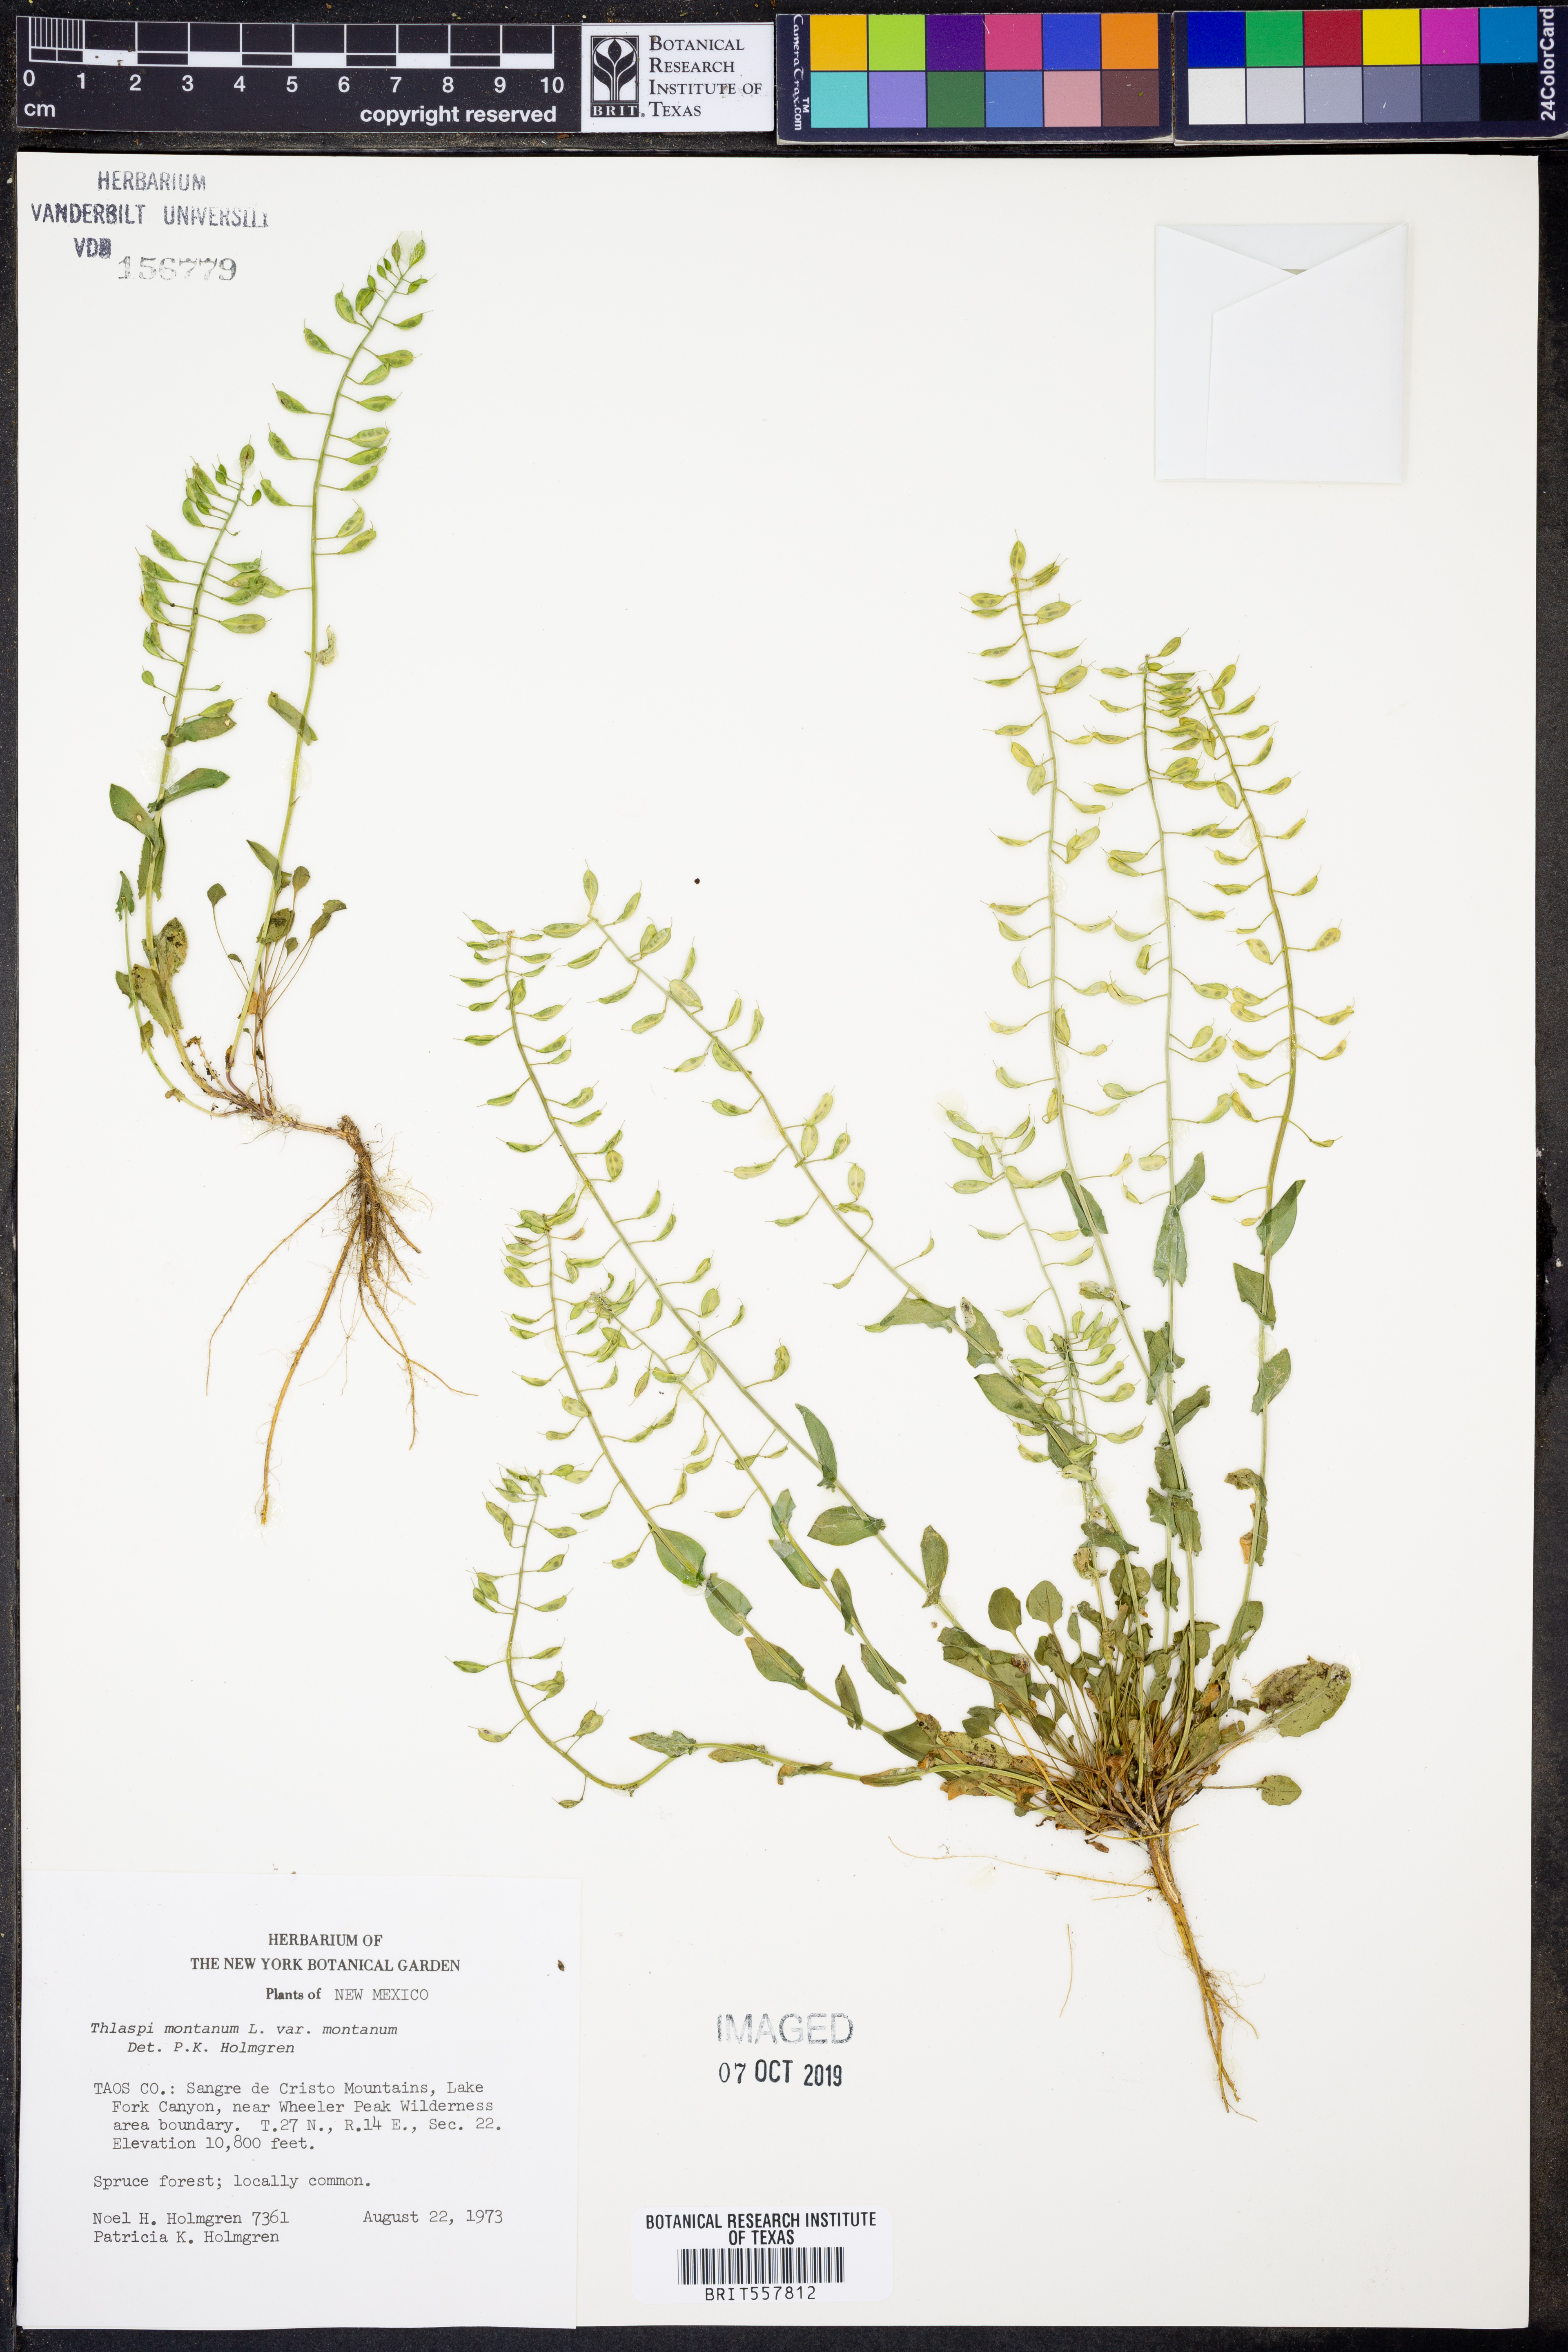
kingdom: Plantae
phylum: Tracheophyta
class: Magnoliopsida
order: Brassicales
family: Brassicaceae
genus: Noccaea
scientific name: Noccaea montana
